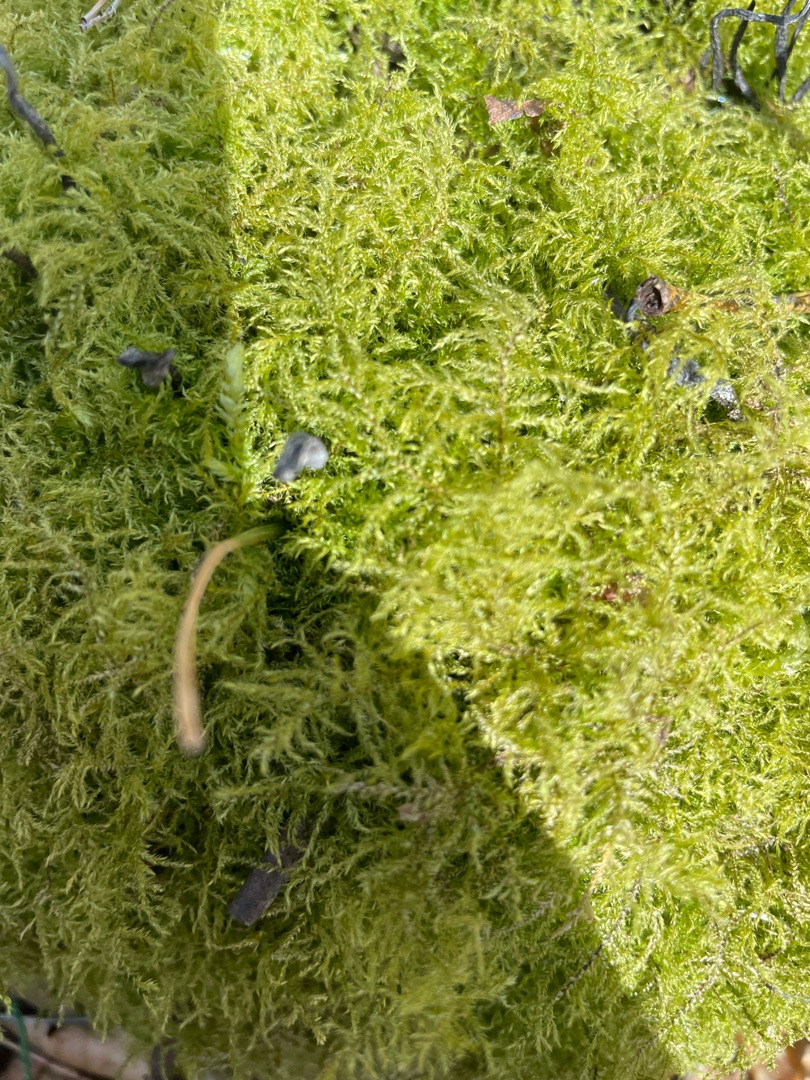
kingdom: Plantae
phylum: Bryophyta
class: Bryopsida
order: Hypnales
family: Brachytheciaceae
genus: Kindbergia
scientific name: Kindbergia praelonga
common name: Forskelligbladet vortetand
